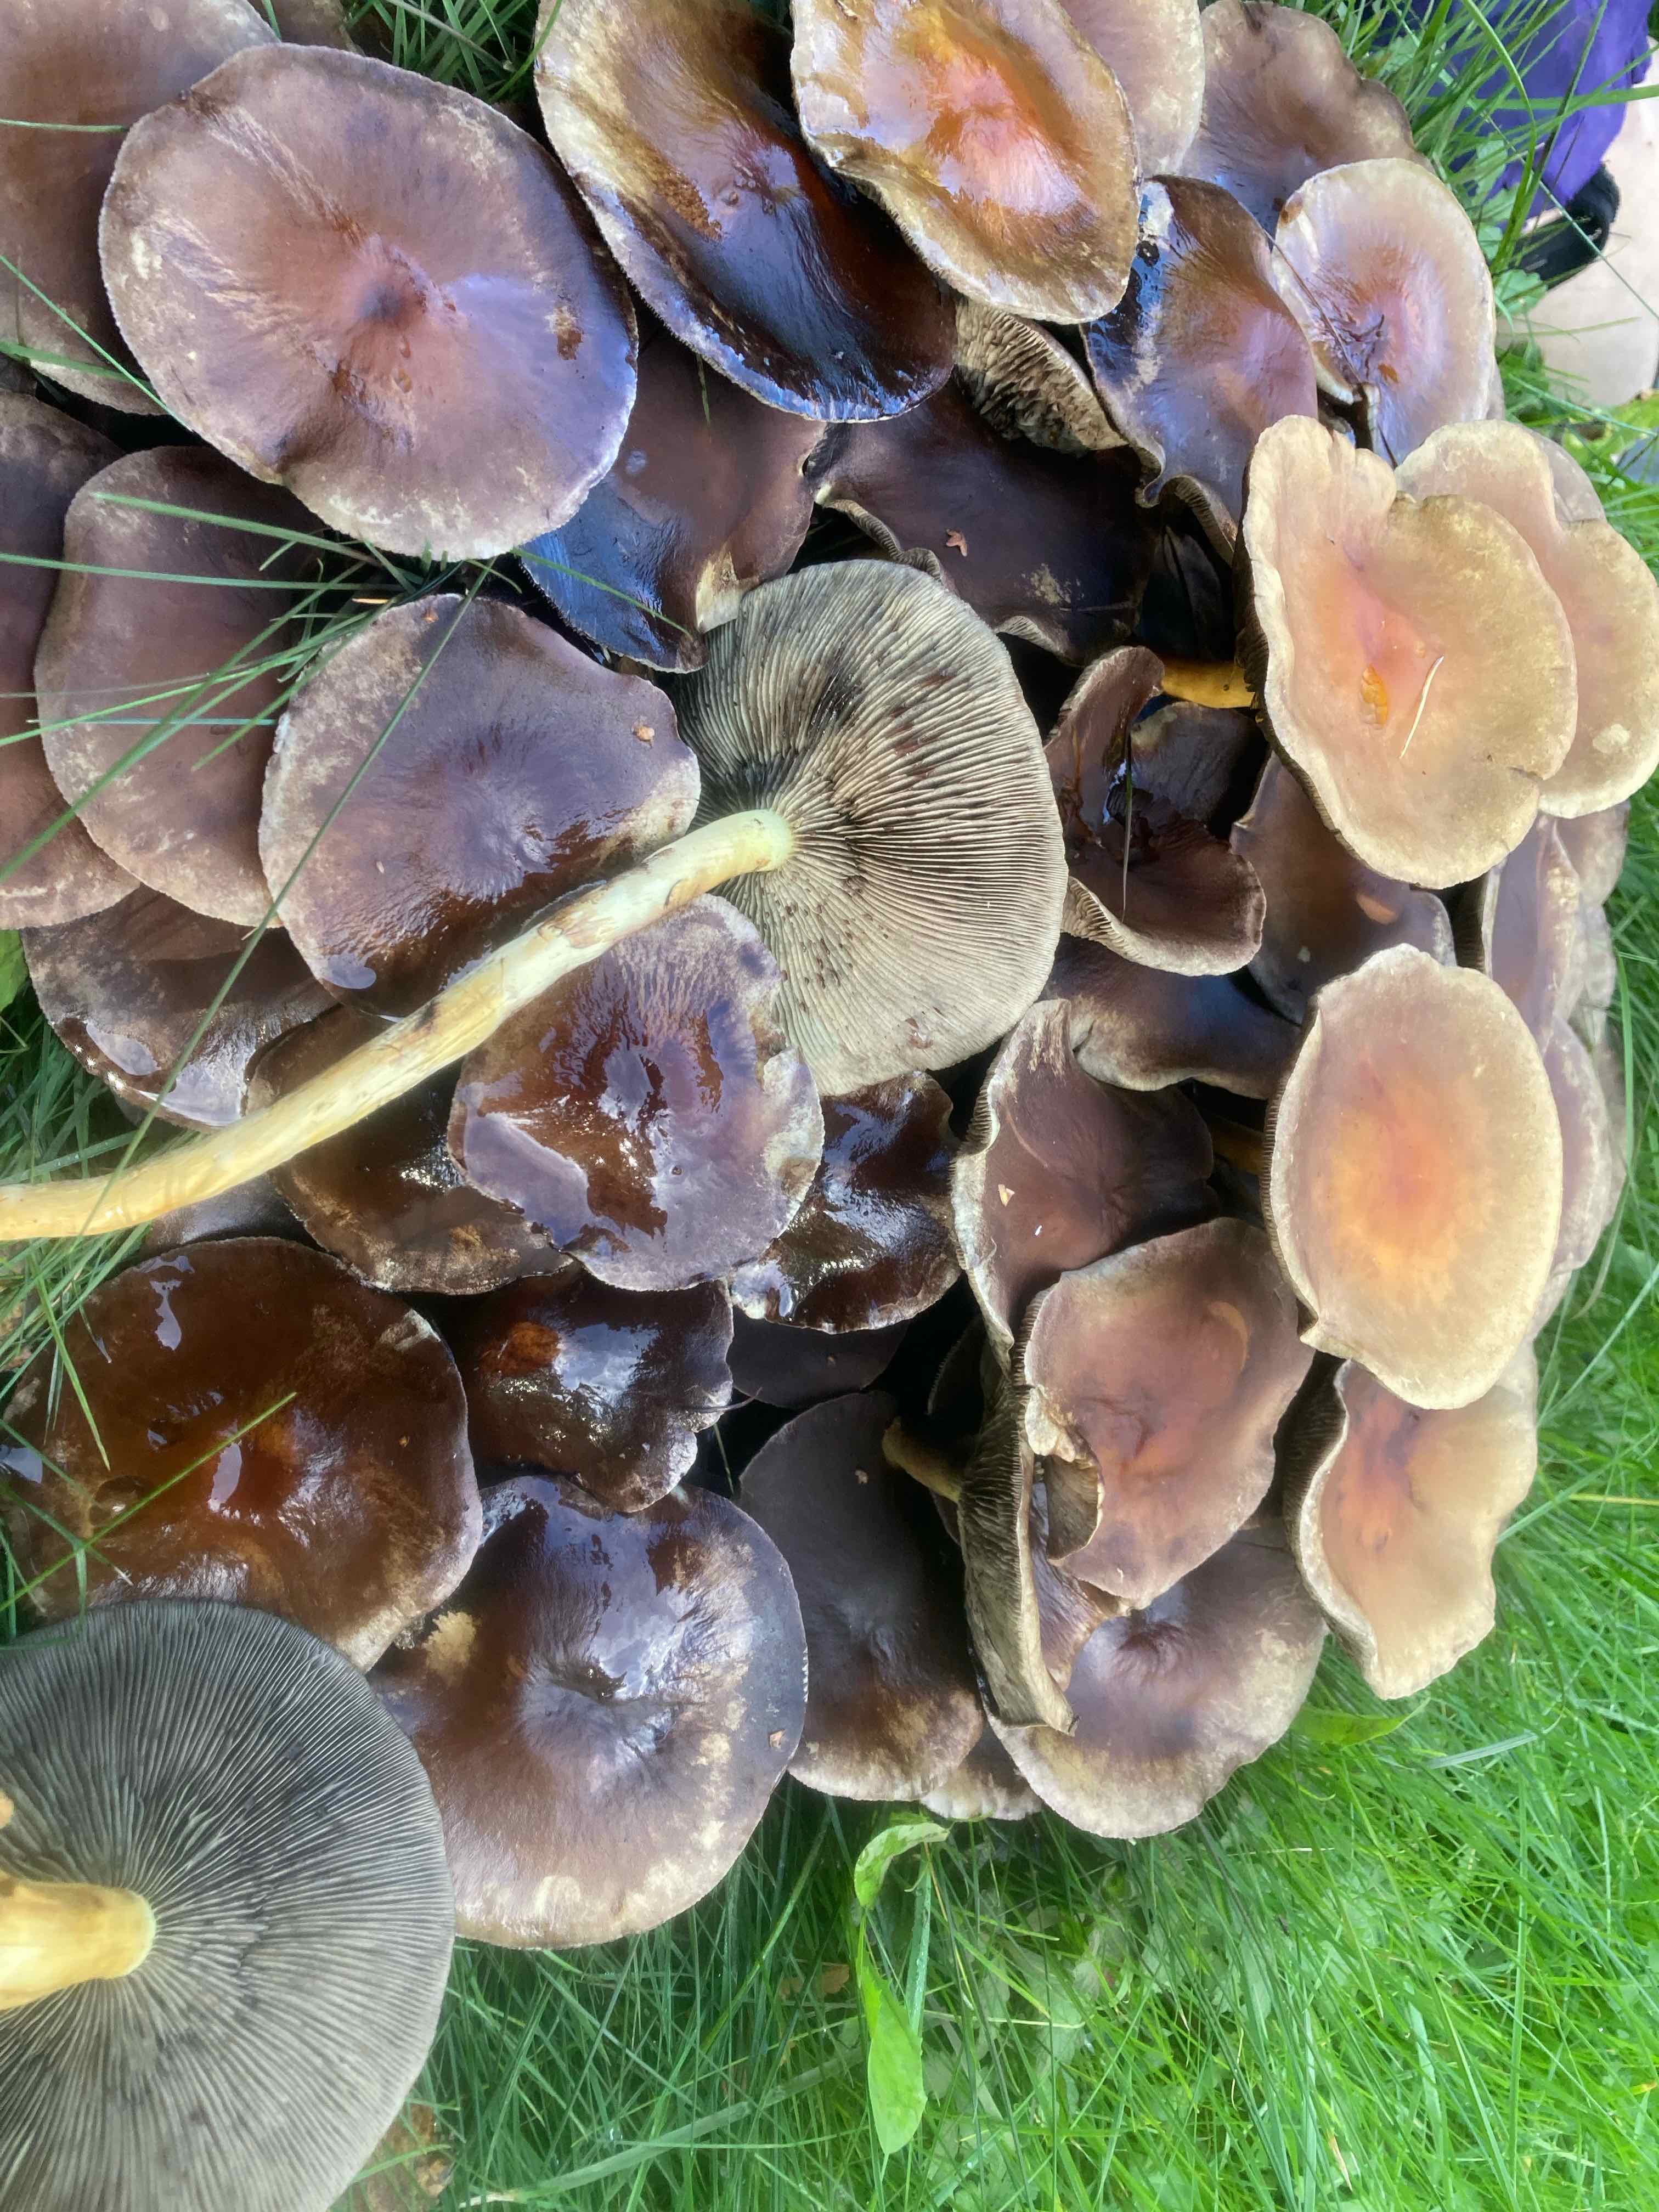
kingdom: Fungi
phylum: Basidiomycota
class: Agaricomycetes
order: Agaricales
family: Strophariaceae
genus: Hypholoma
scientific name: Hypholoma fasciculare
